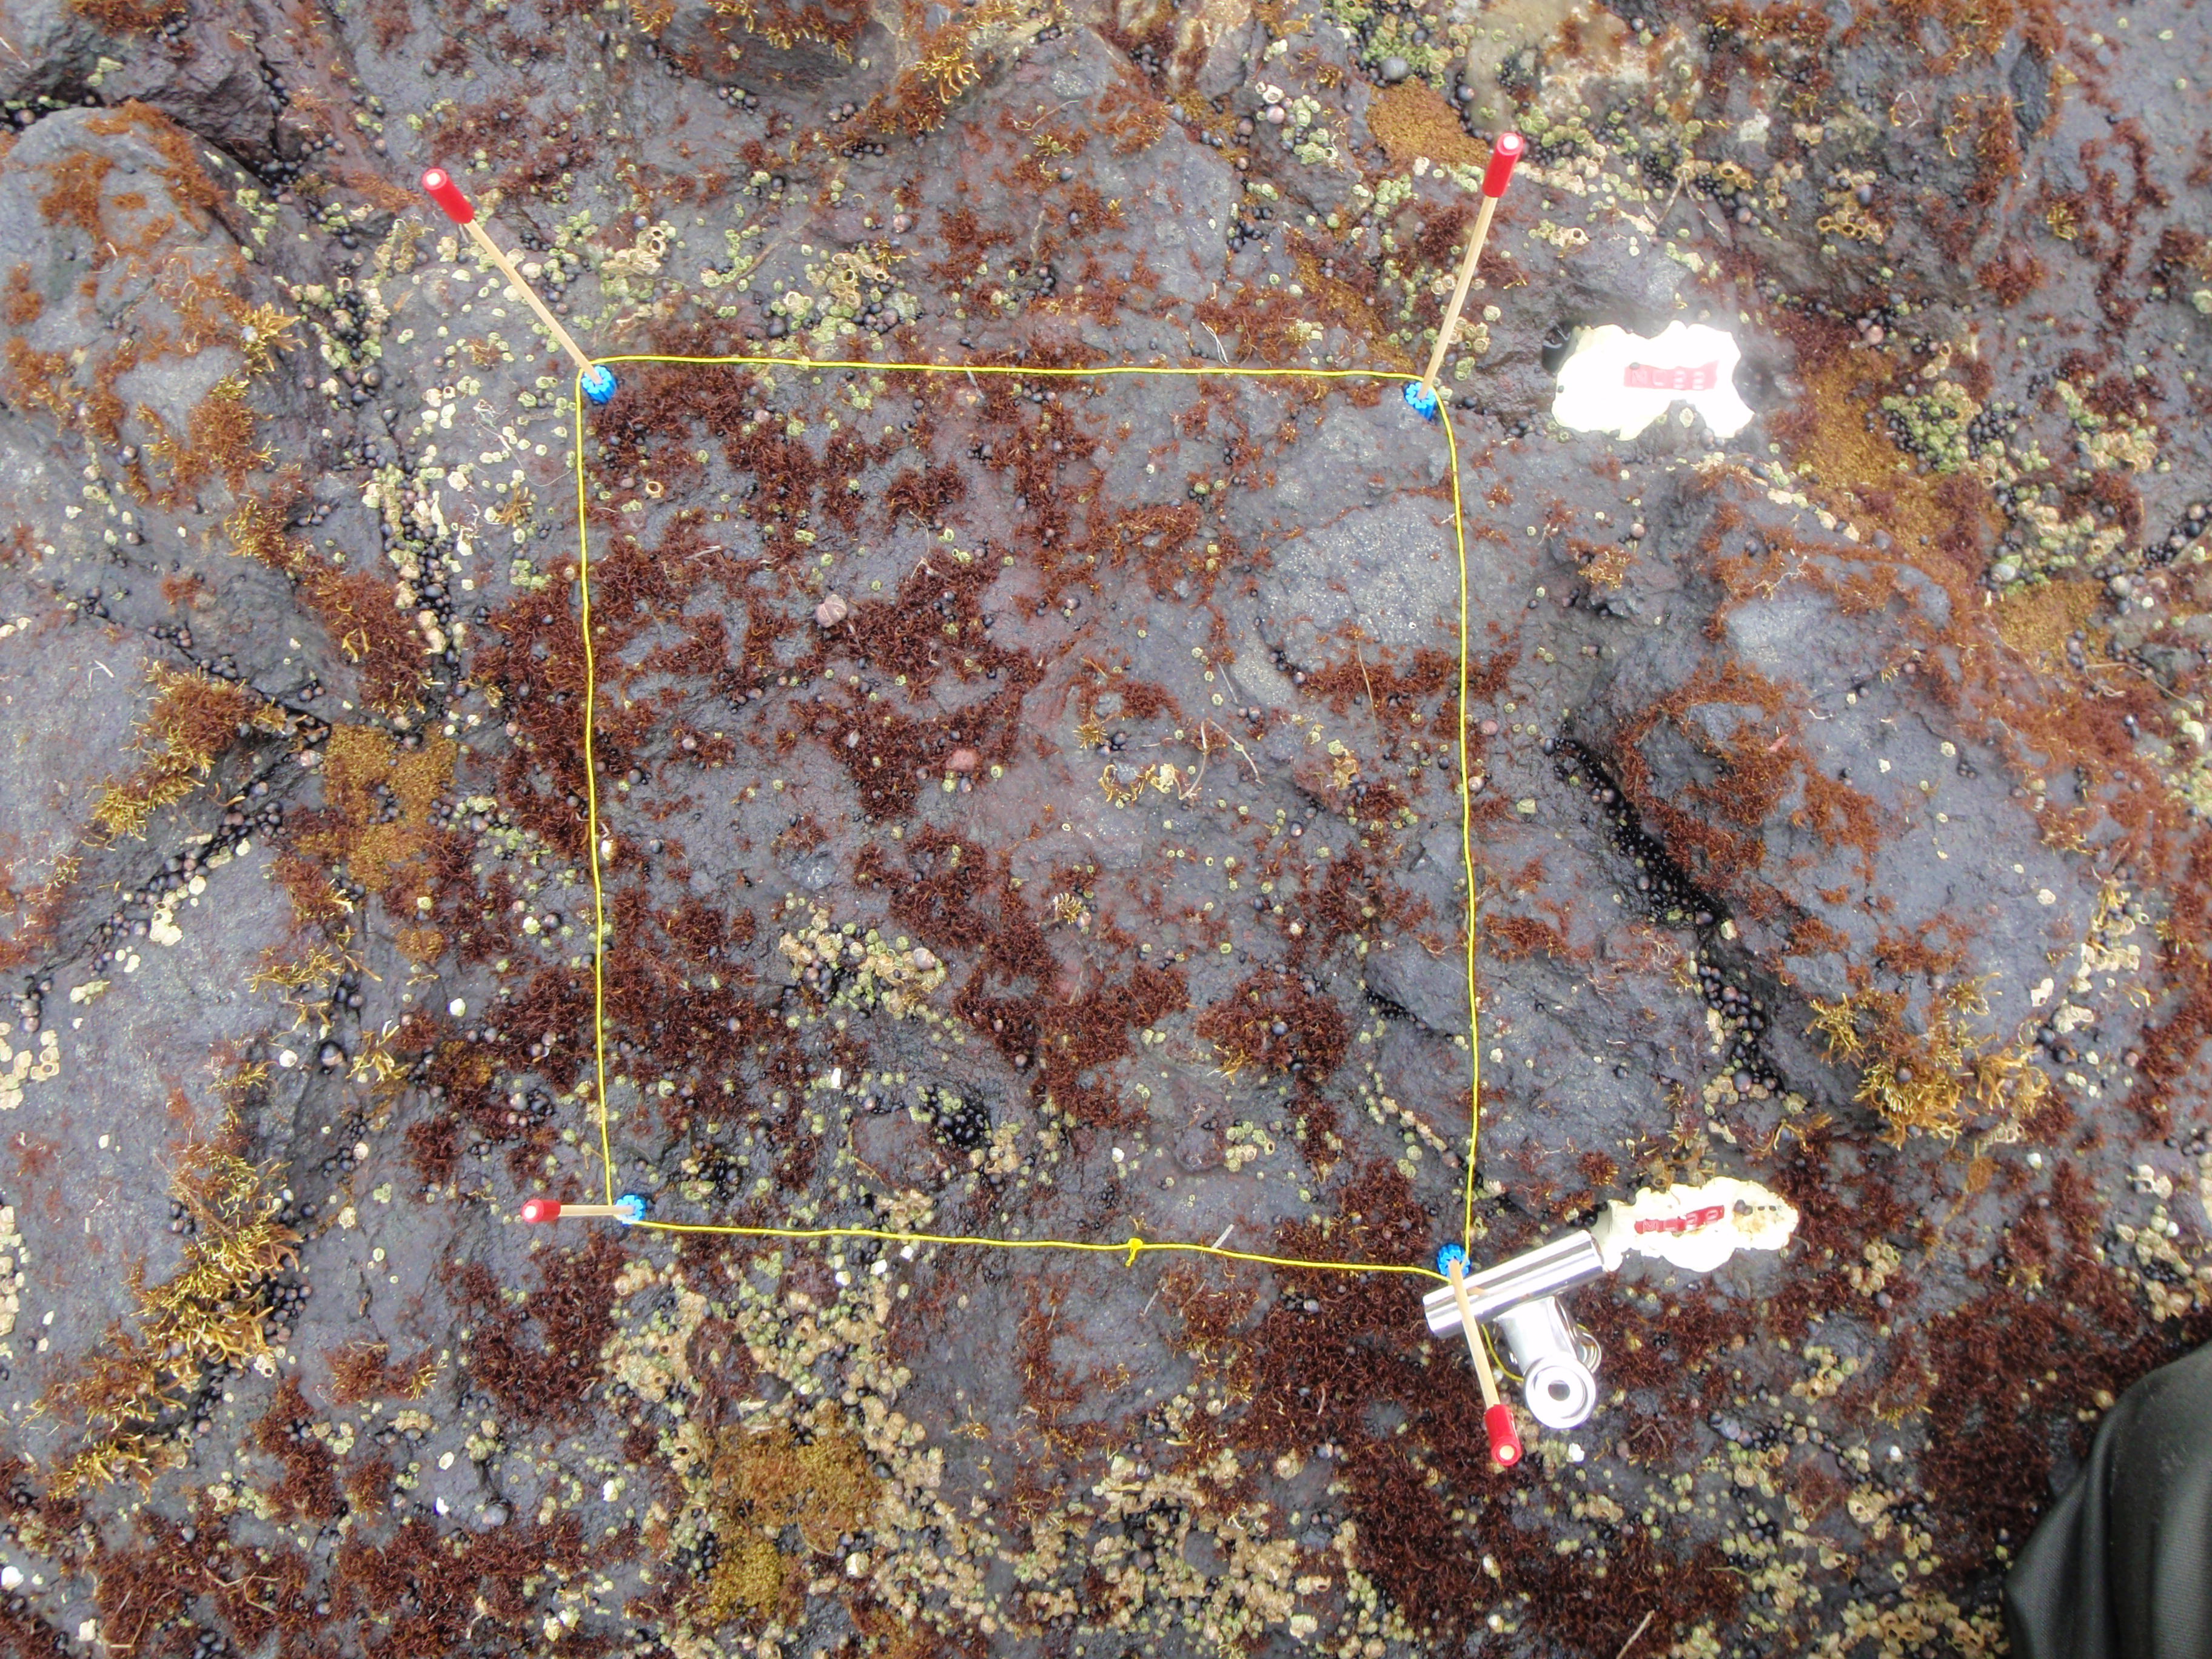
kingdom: Plantae
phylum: Rhodophyta
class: Florideophyceae
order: Gigartinales
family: Endocladiaceae
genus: Gloiopeltis
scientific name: Gloiopeltis furcata
